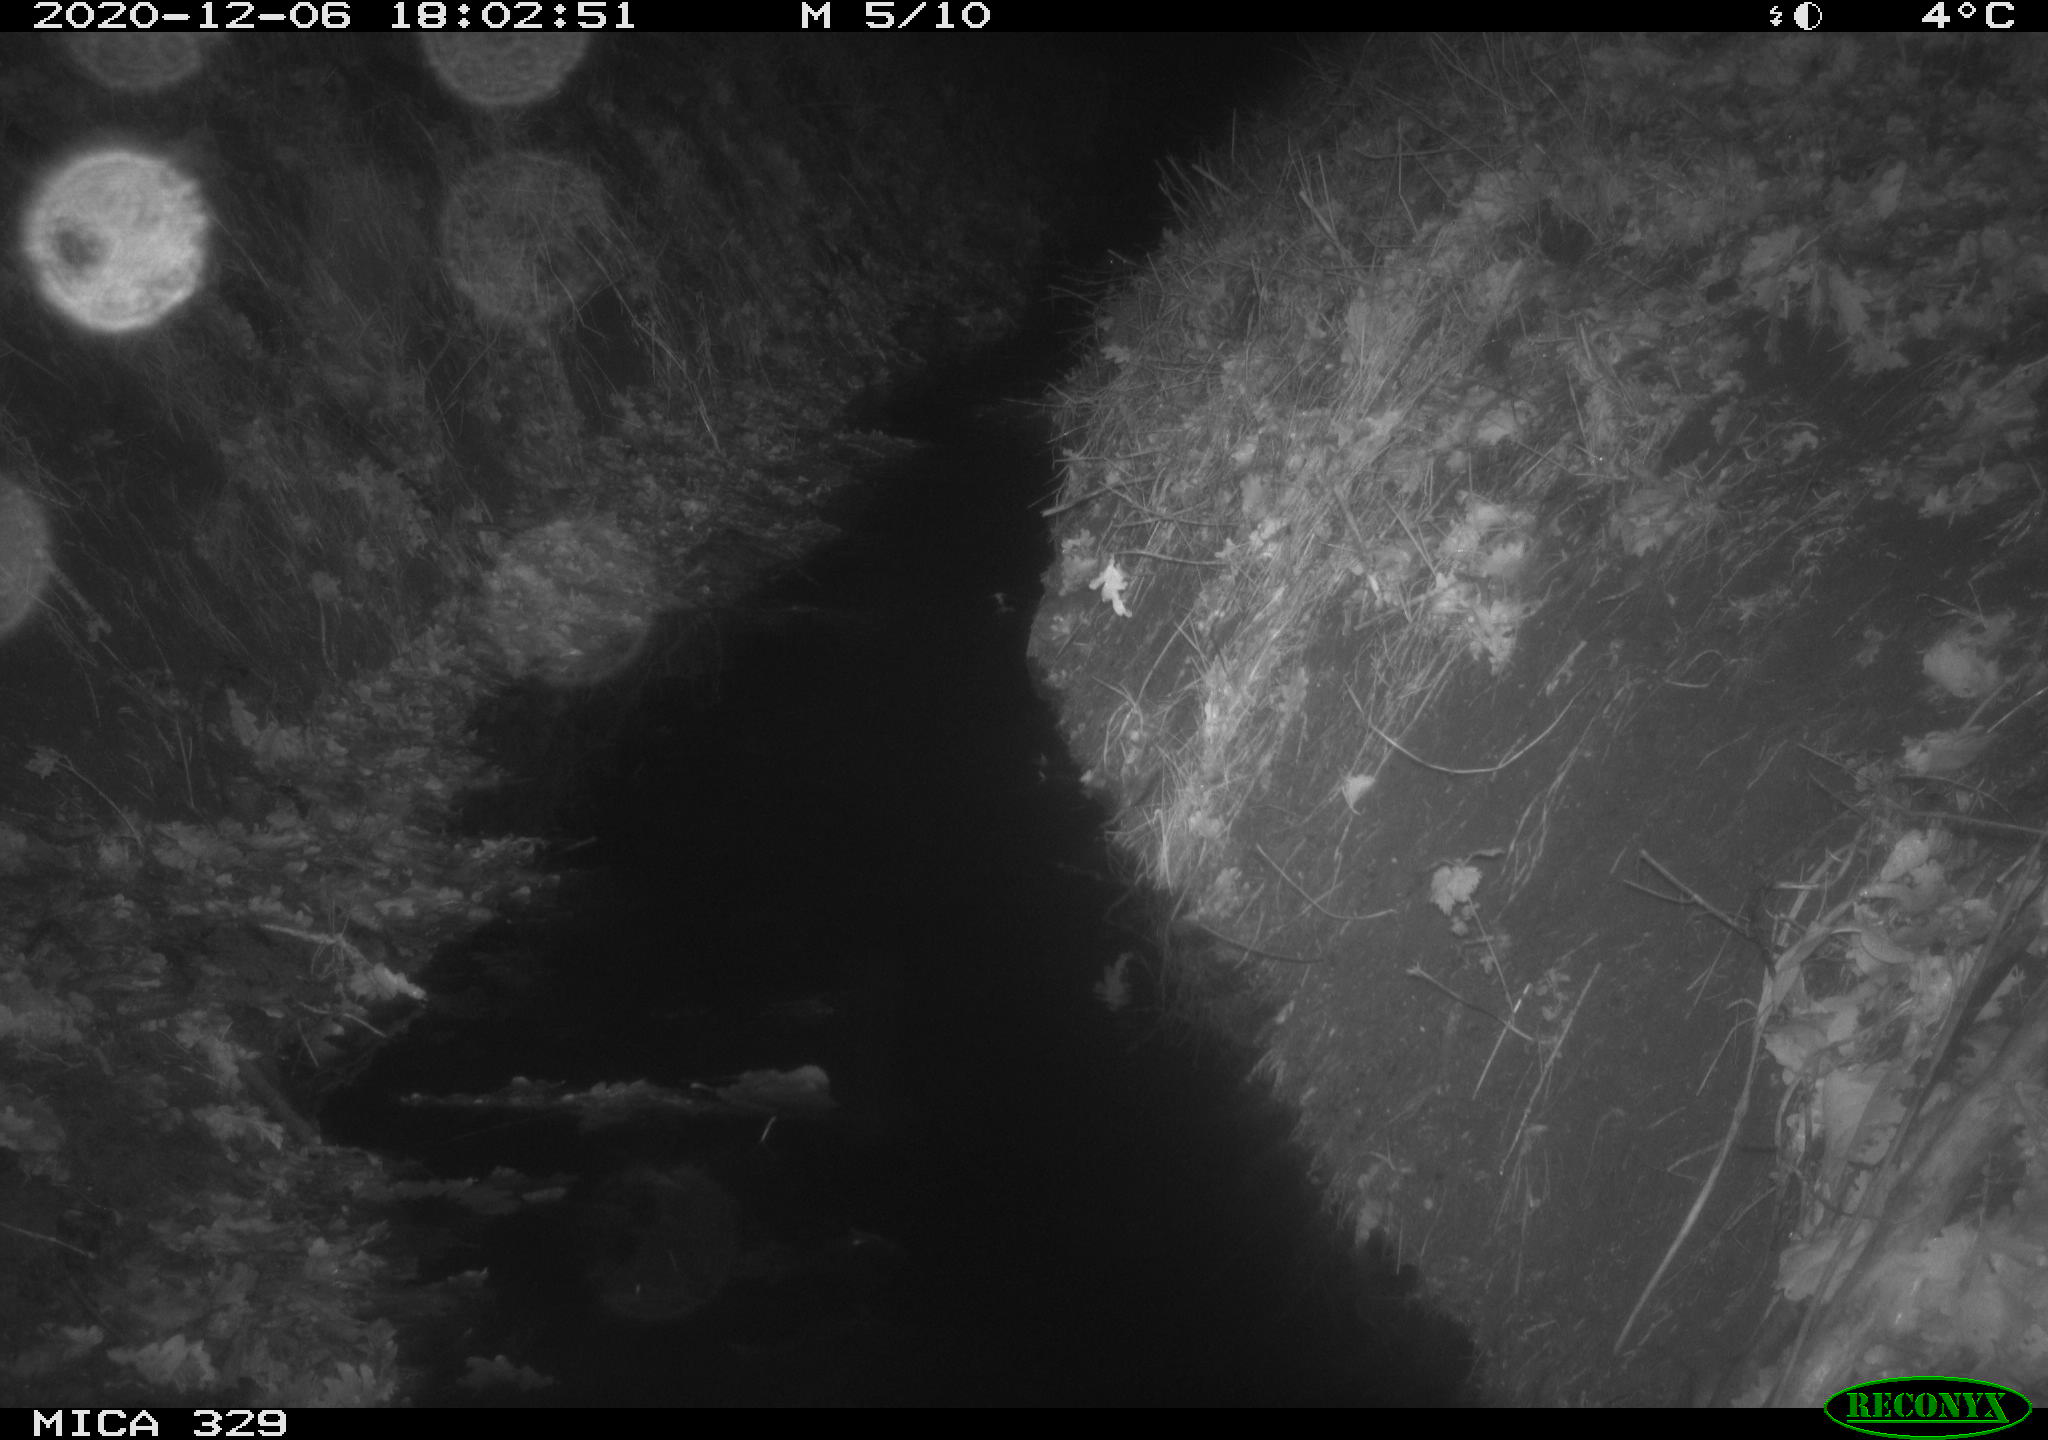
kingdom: Animalia
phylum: Chordata
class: Mammalia
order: Rodentia
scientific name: Rodentia
